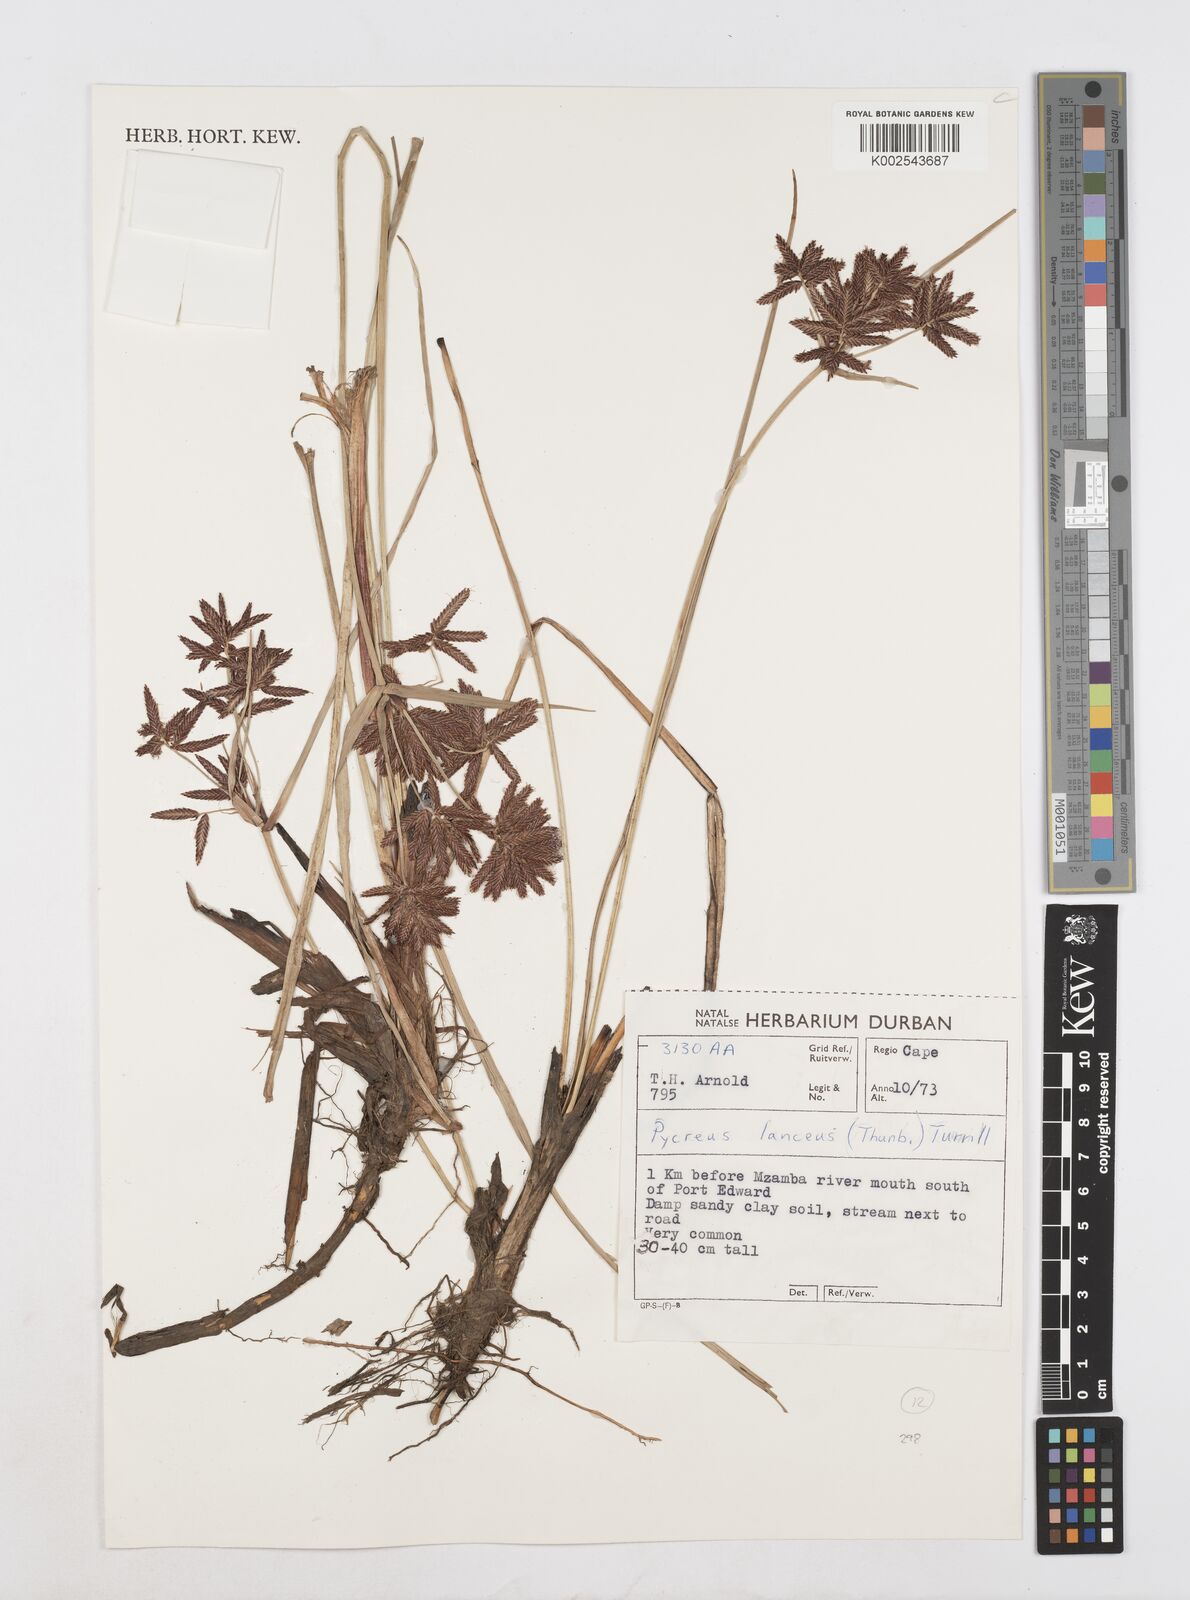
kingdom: Plantae
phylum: Tracheophyta
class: Liliopsida
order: Poales
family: Cyperaceae
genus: Cyperus
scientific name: Cyperus nitidus
